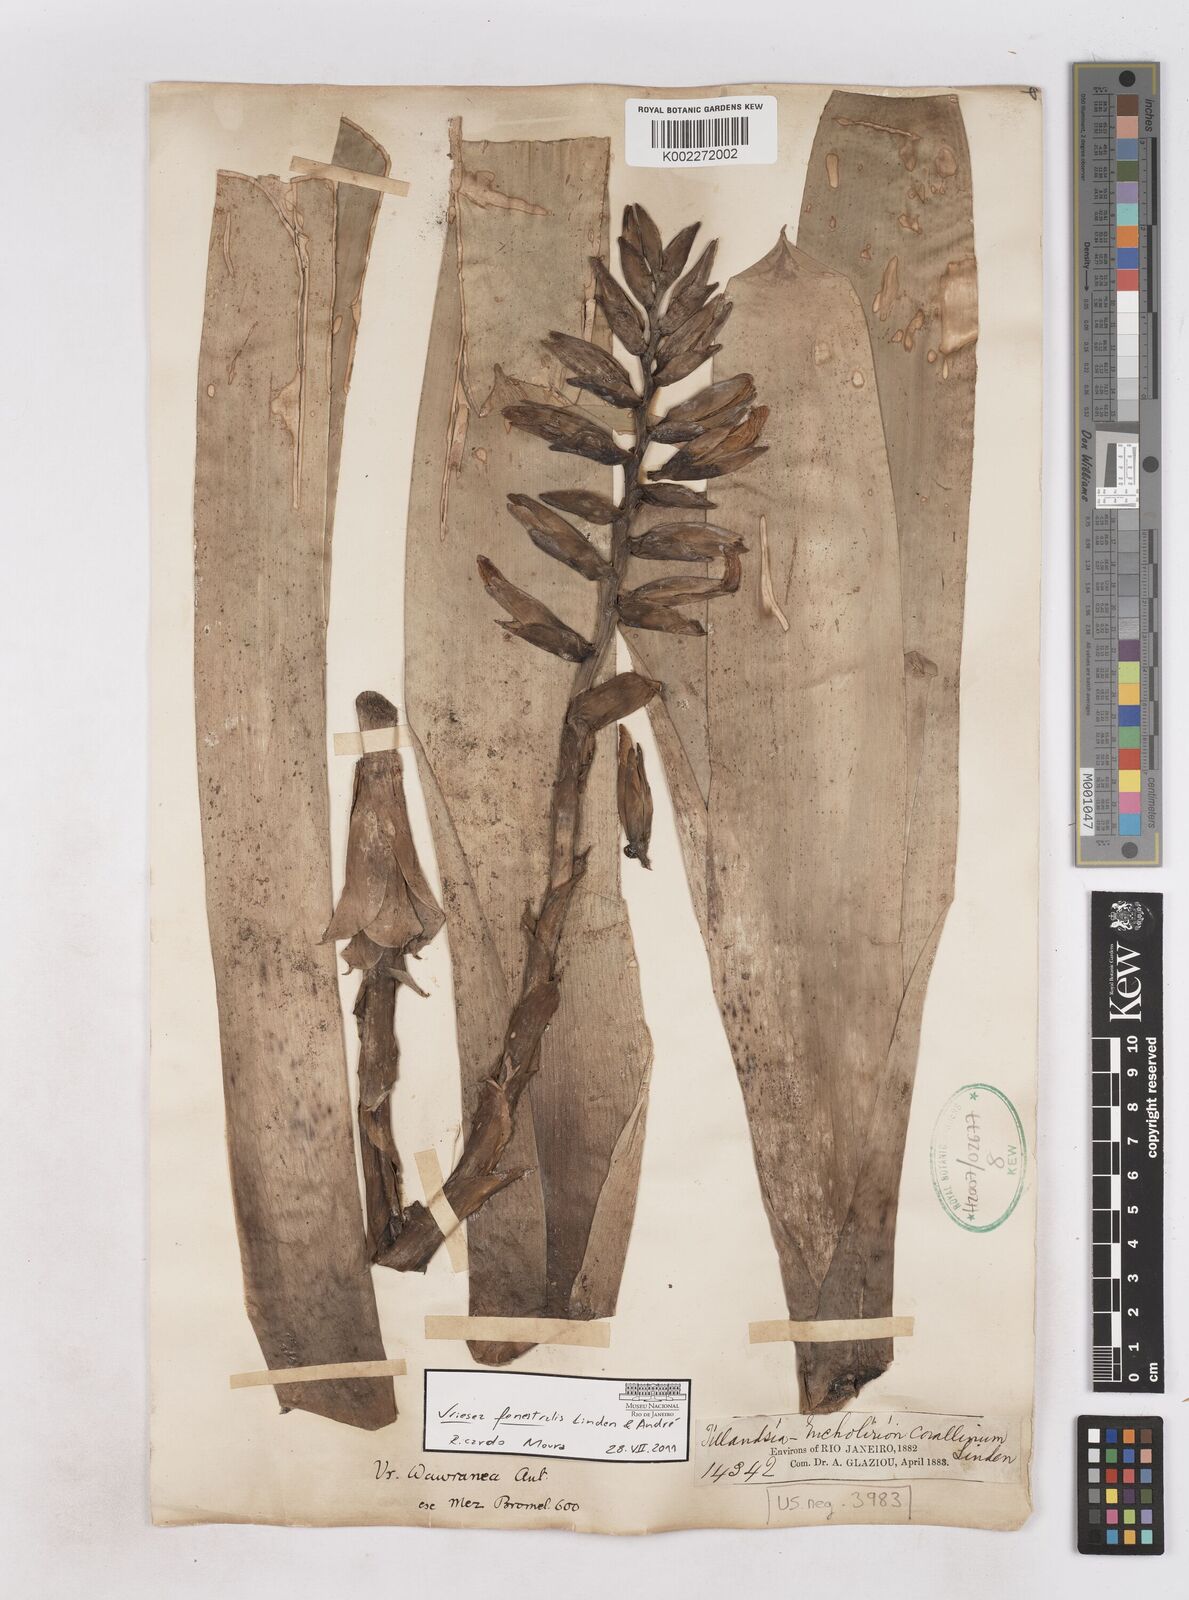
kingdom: Plantae
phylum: Tracheophyta
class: Liliopsida
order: Poales
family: Bromeliaceae
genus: Vriesea
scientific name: Vriesea fenestralis
